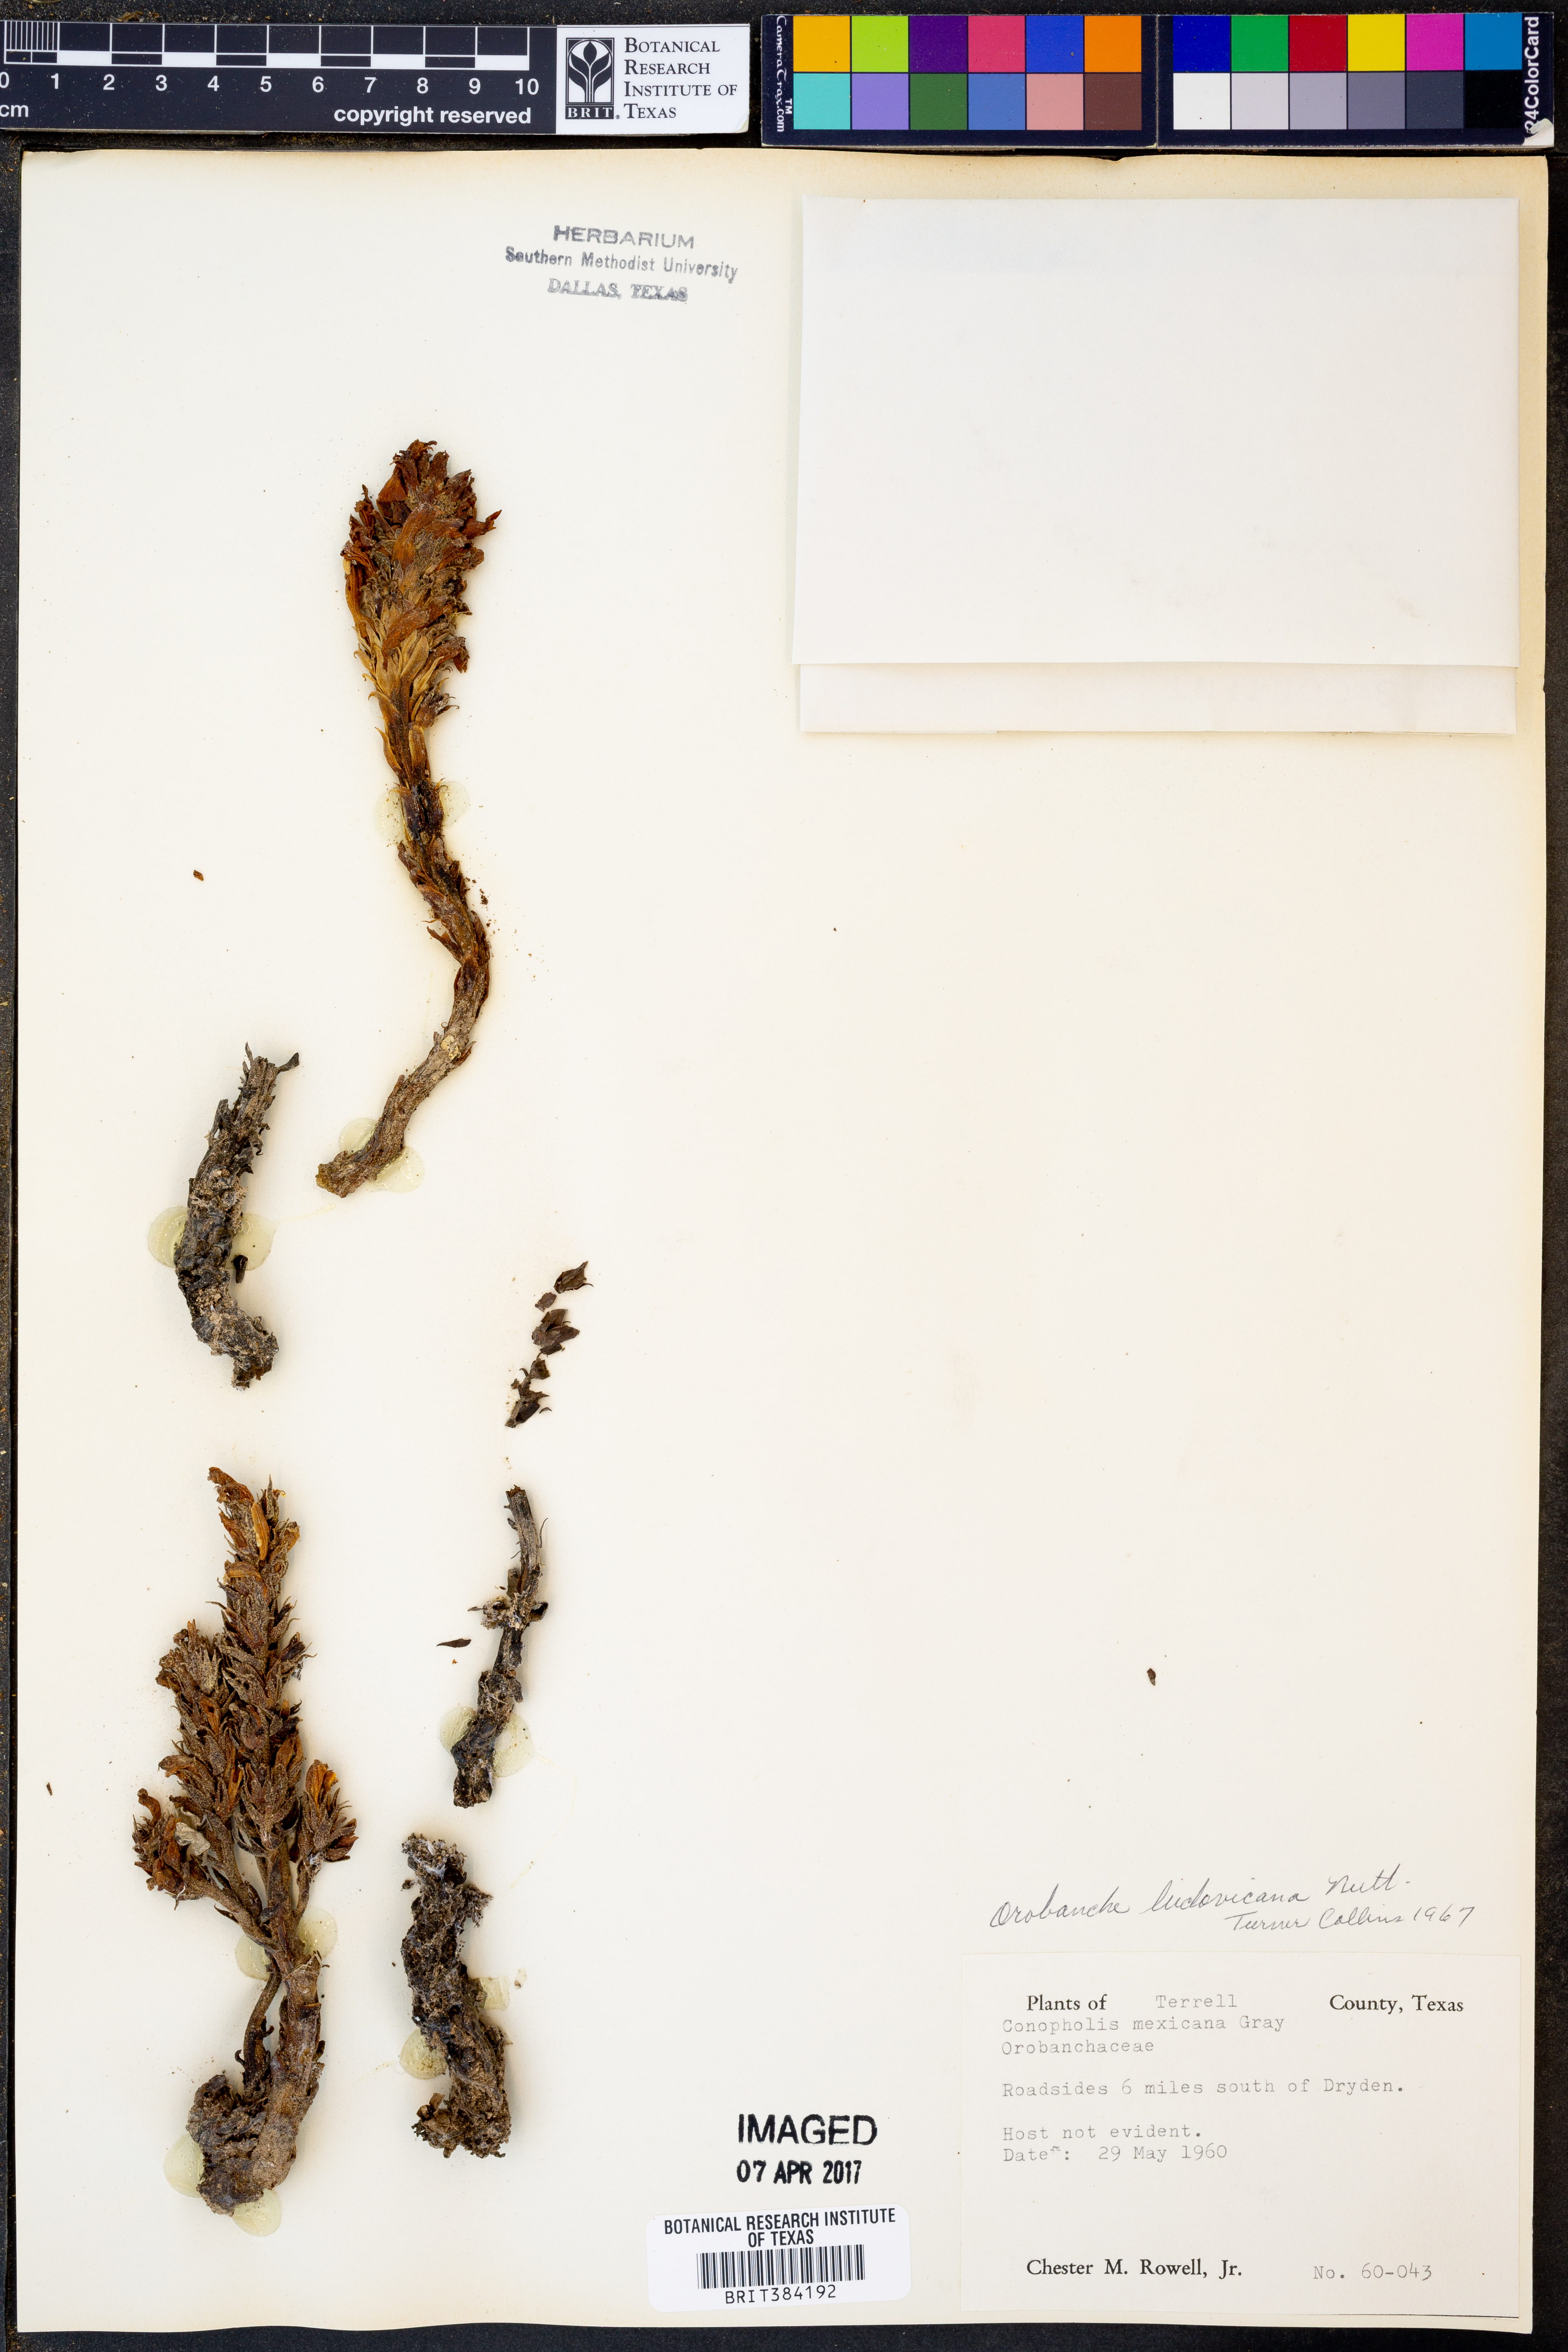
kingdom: Plantae
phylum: Tracheophyta
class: Magnoliopsida
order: Lamiales
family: Orobanchaceae
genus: Aphyllon
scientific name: Aphyllon ludovicianum
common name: Louisiana broomrape
